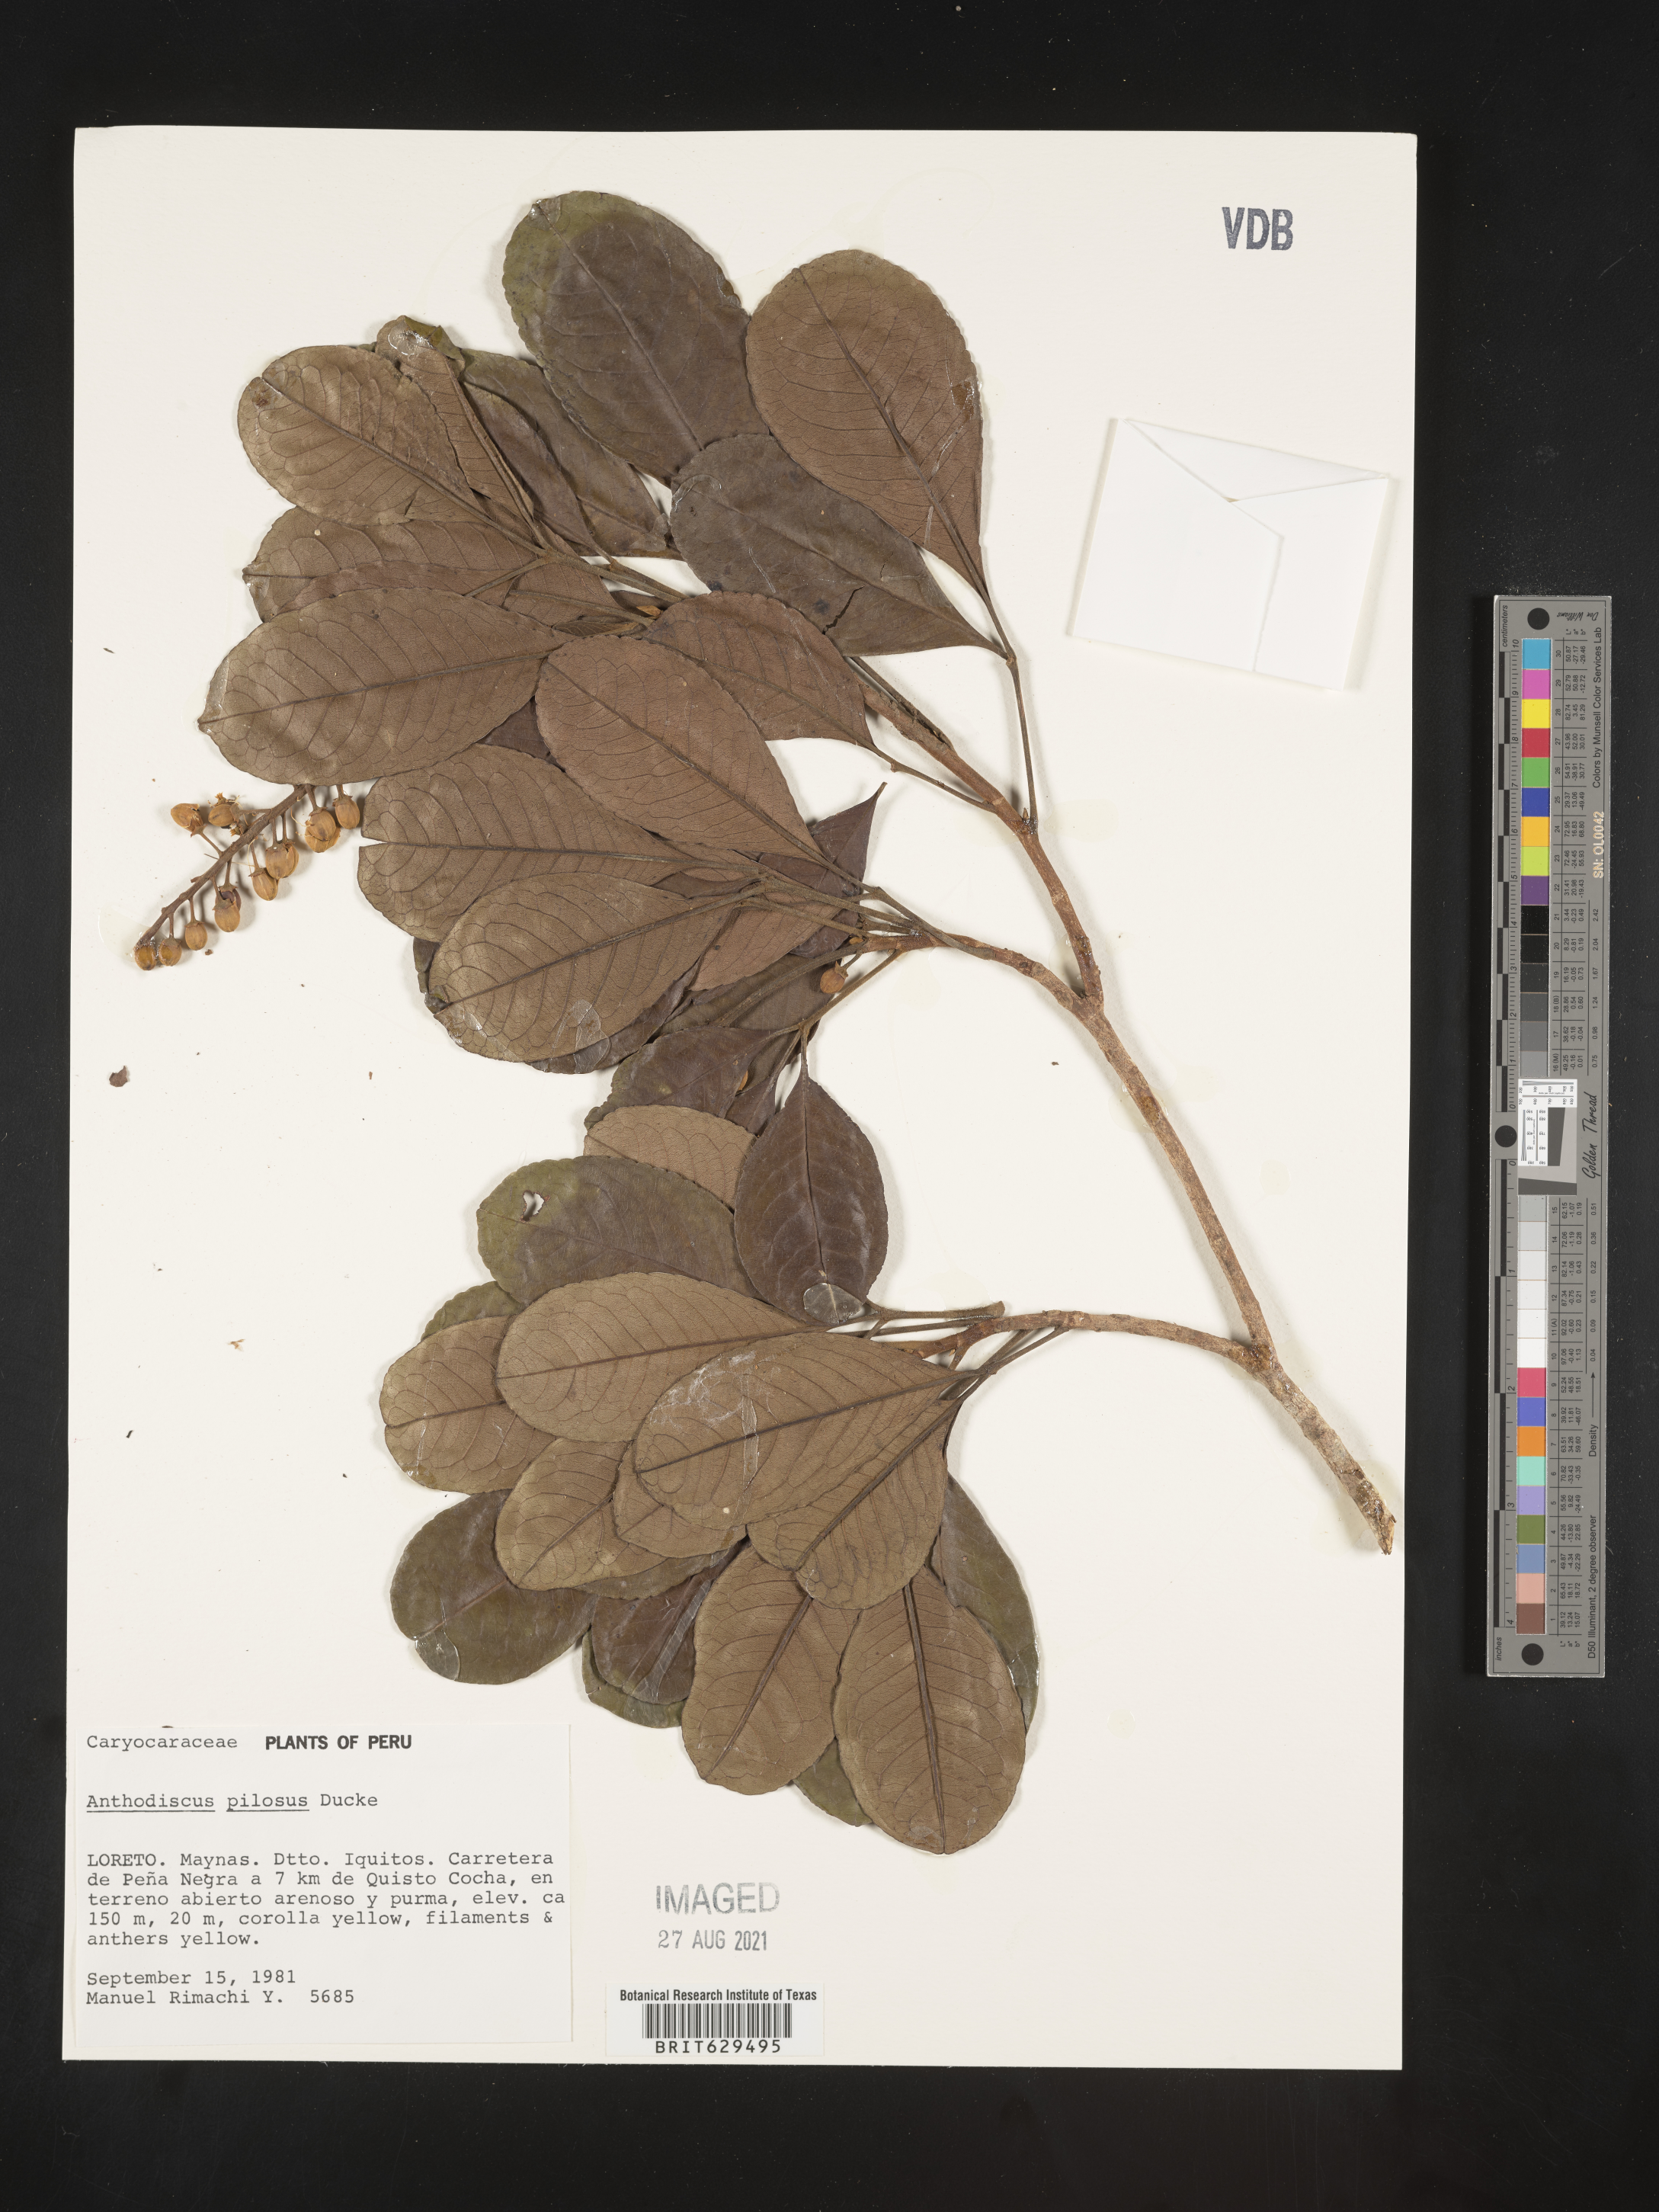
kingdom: Plantae
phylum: Tracheophyta
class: Magnoliopsida
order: Malpighiales
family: Caryocaraceae
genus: Anthodiscus
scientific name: Anthodiscus pilosus
